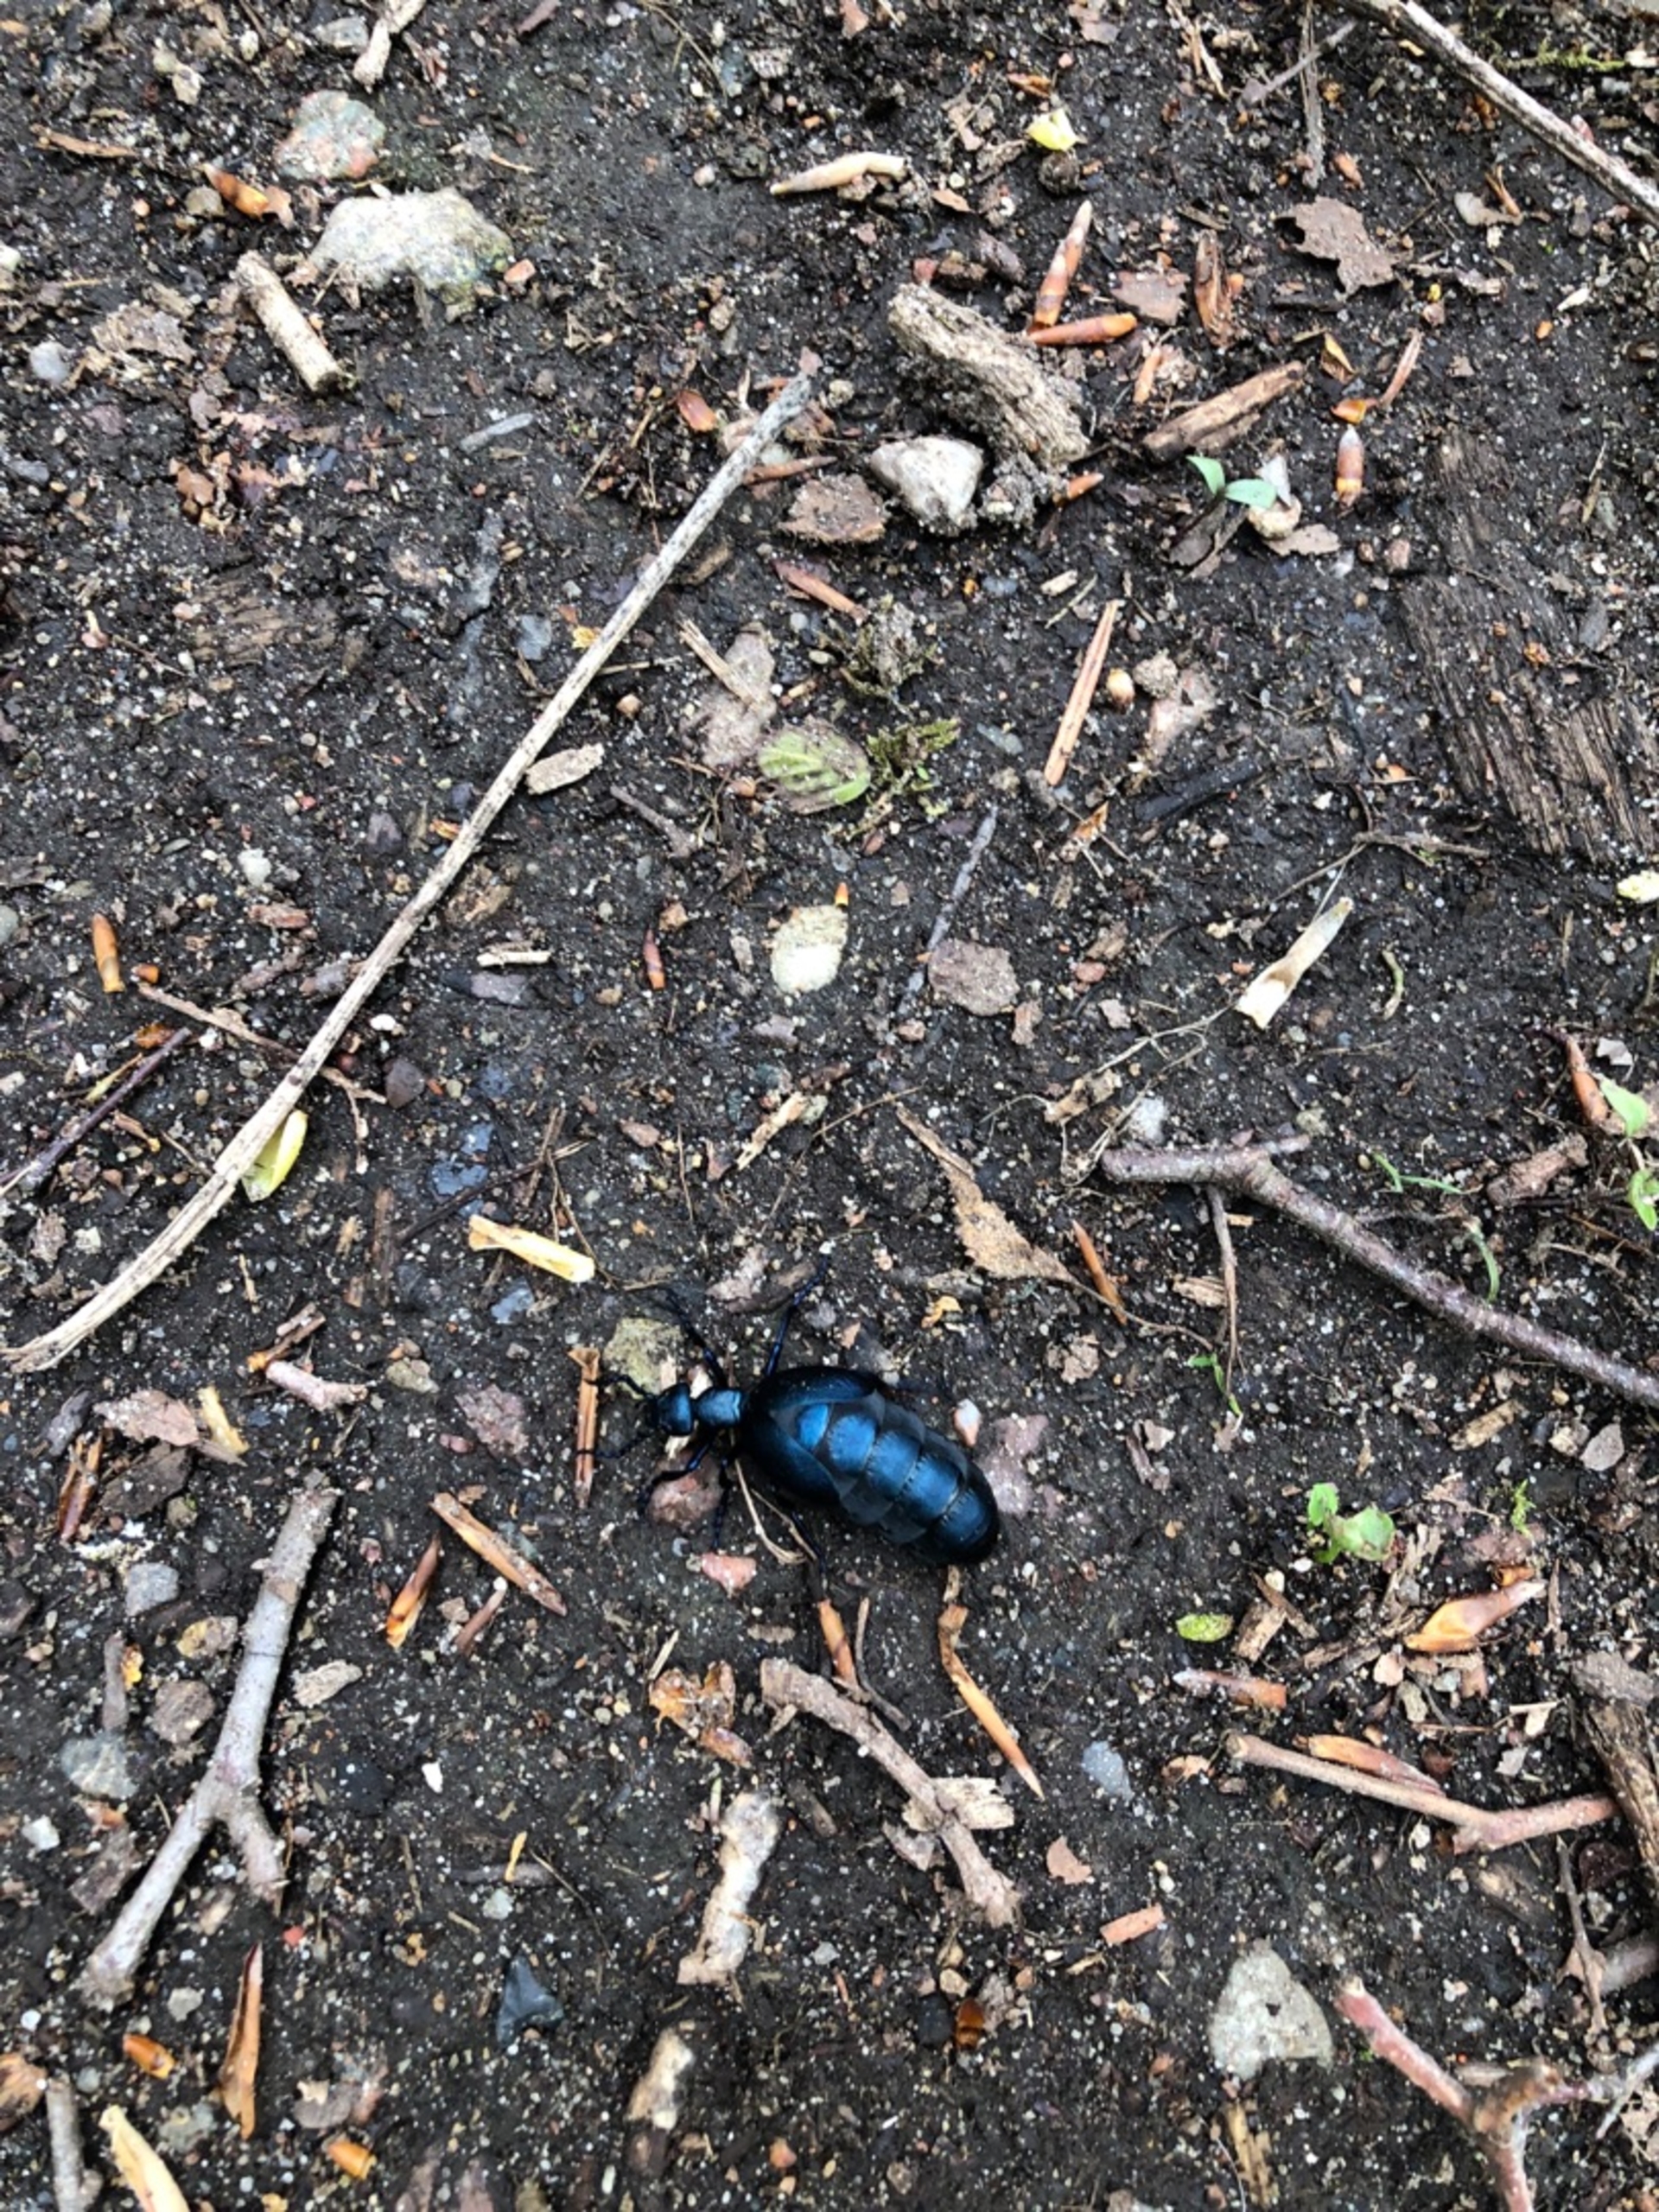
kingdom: Animalia
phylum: Arthropoda
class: Insecta
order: Coleoptera
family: Meloidae
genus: Meloe
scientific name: Meloe violaceus
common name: Blå oliebille
